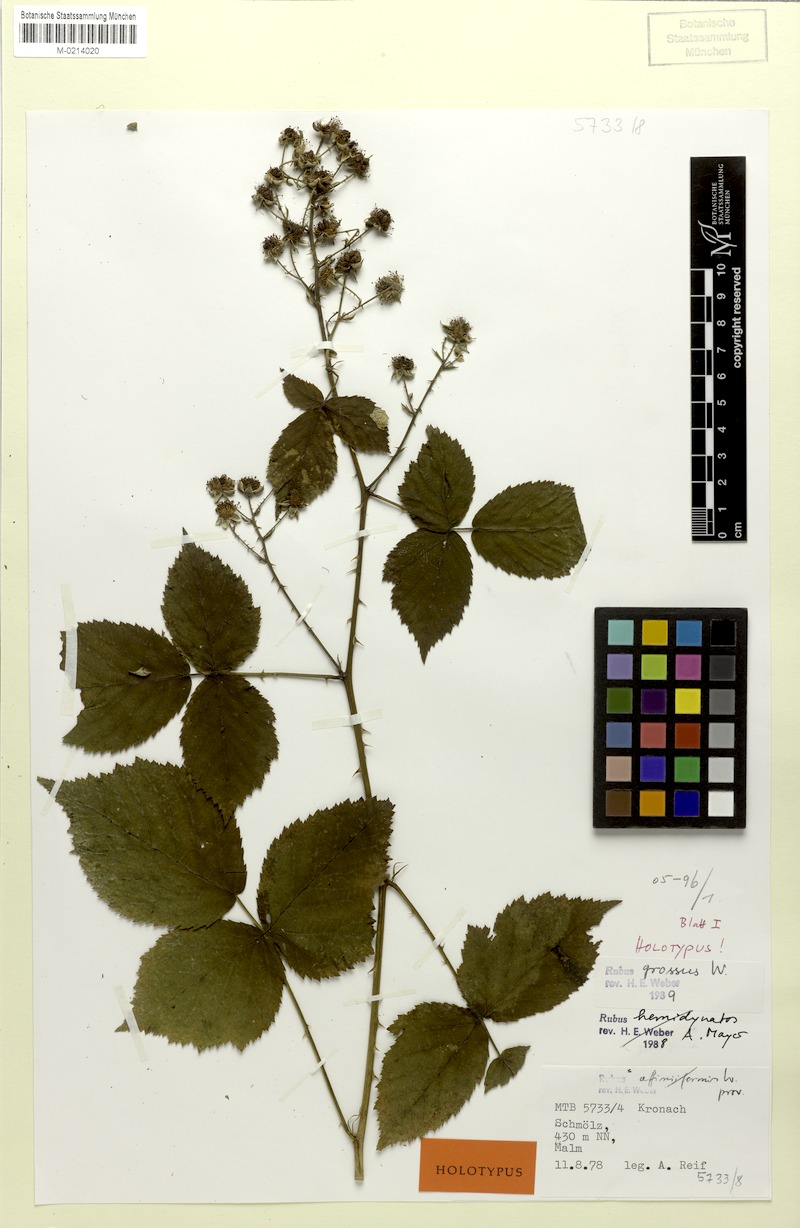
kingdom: Plantae
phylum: Tracheophyta
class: Magnoliopsida
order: Rosales
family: Rosaceae
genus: Rubus
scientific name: Rubus holandrei
